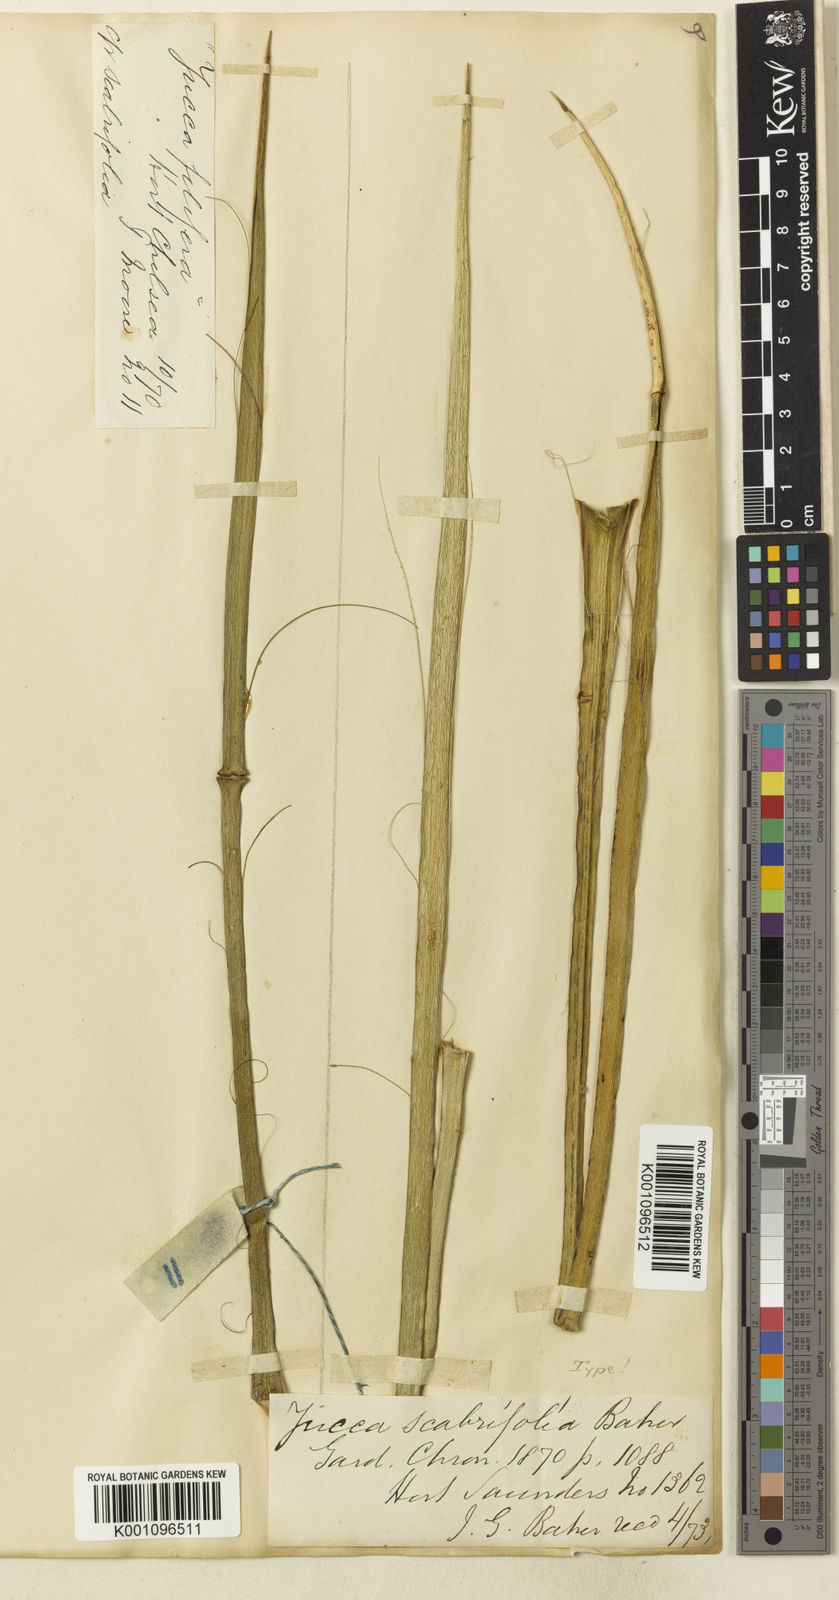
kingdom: Plantae
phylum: Tracheophyta
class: Liliopsida
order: Asparagales
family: Asparagaceae
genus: Yucca
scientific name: Yucca baccata
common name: Banana yucca
